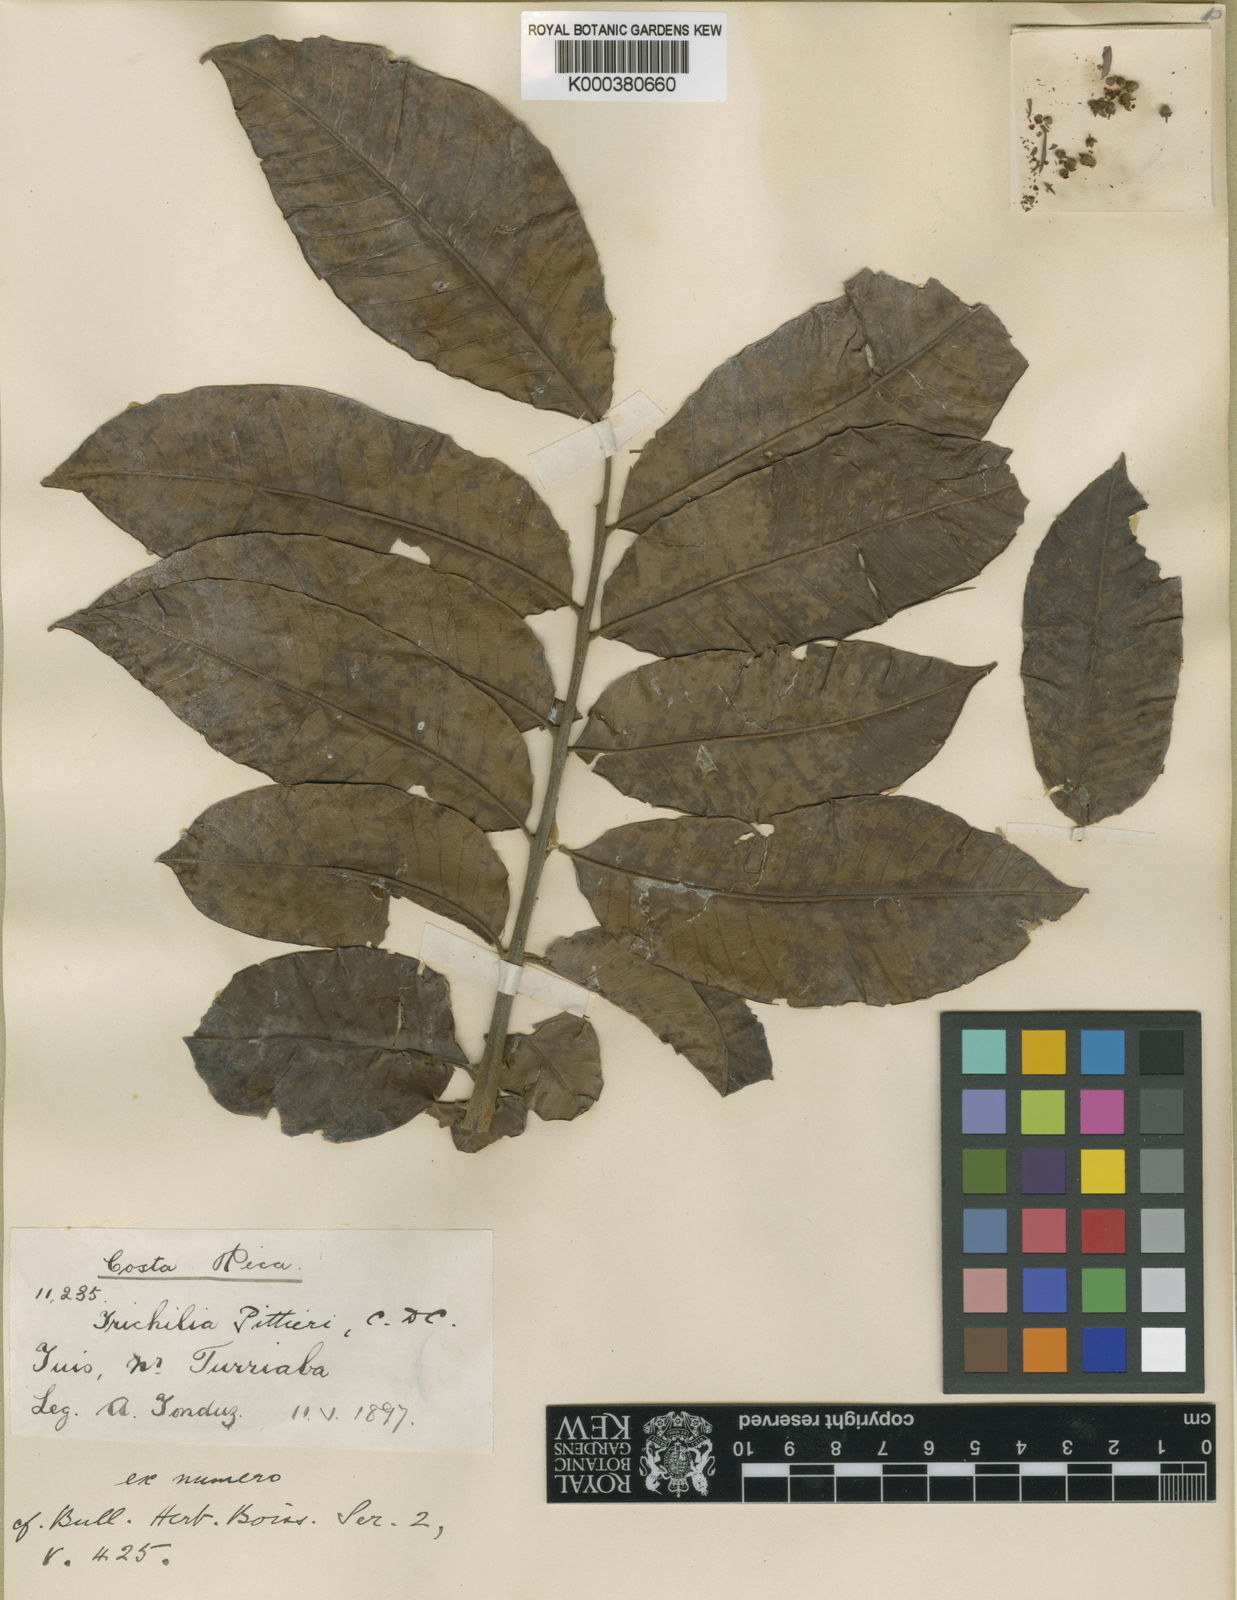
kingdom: Plantae
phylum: Tracheophyta
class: Magnoliopsida
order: Sapindales
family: Meliaceae
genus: Trichilia
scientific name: Trichilia pittieri
